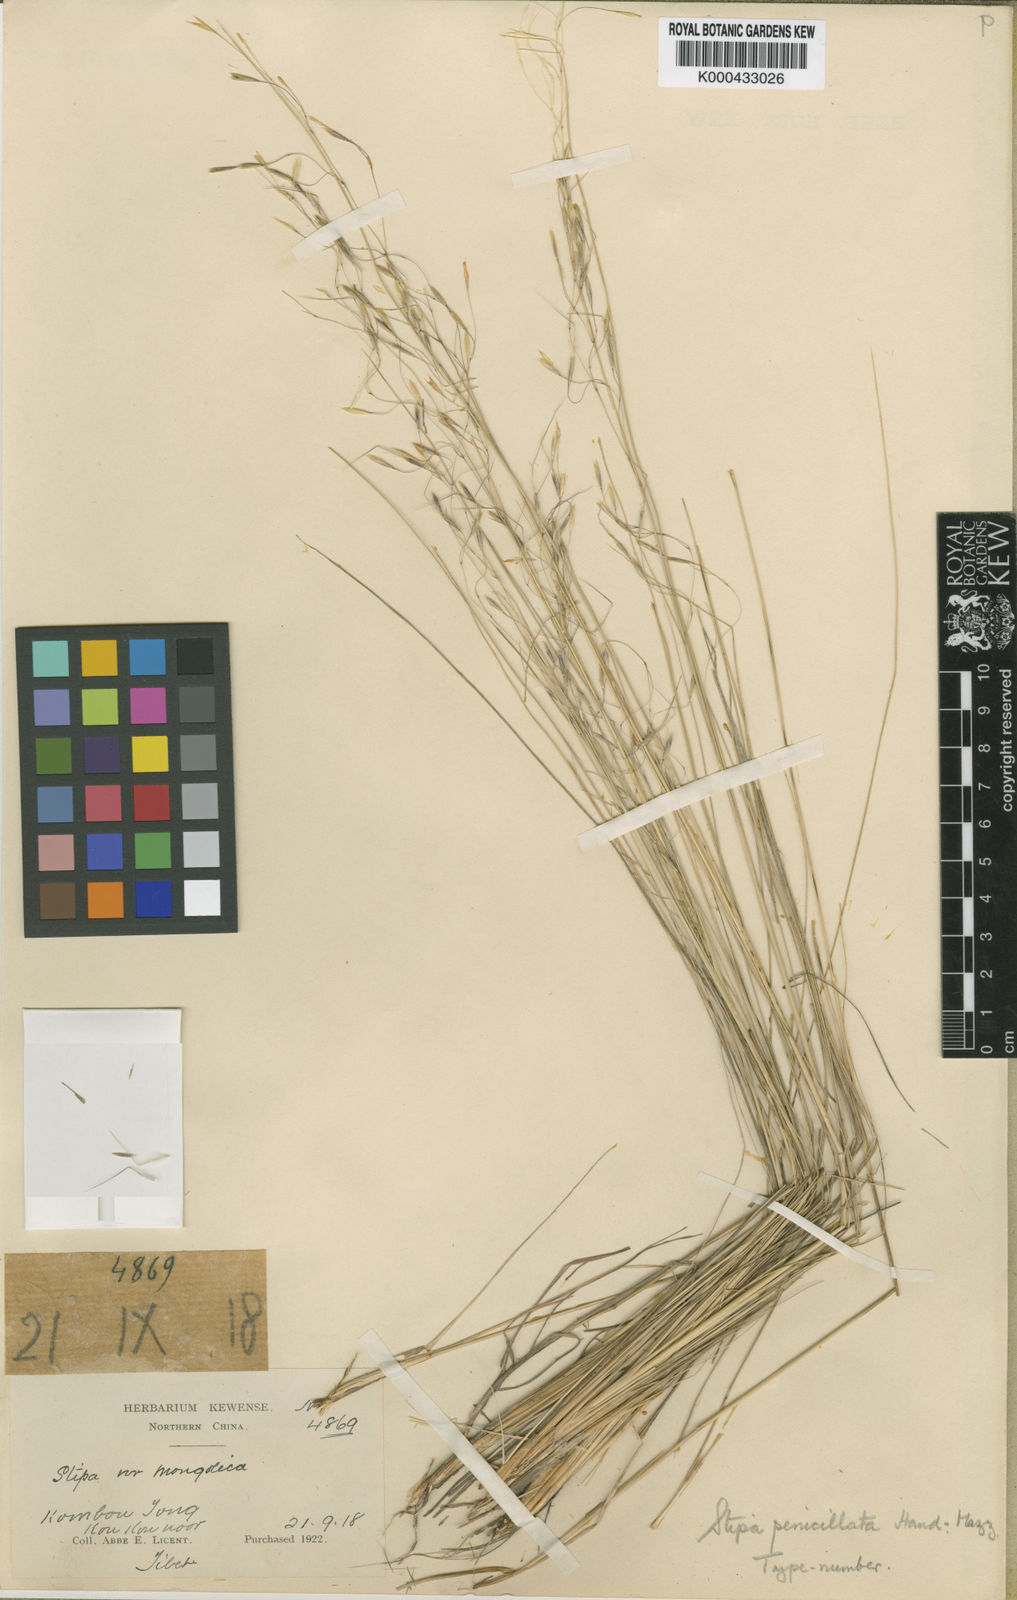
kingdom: Plantae
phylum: Tracheophyta
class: Liliopsida
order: Poales
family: Poaceae
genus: Stipa
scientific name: Stipa penicillata
